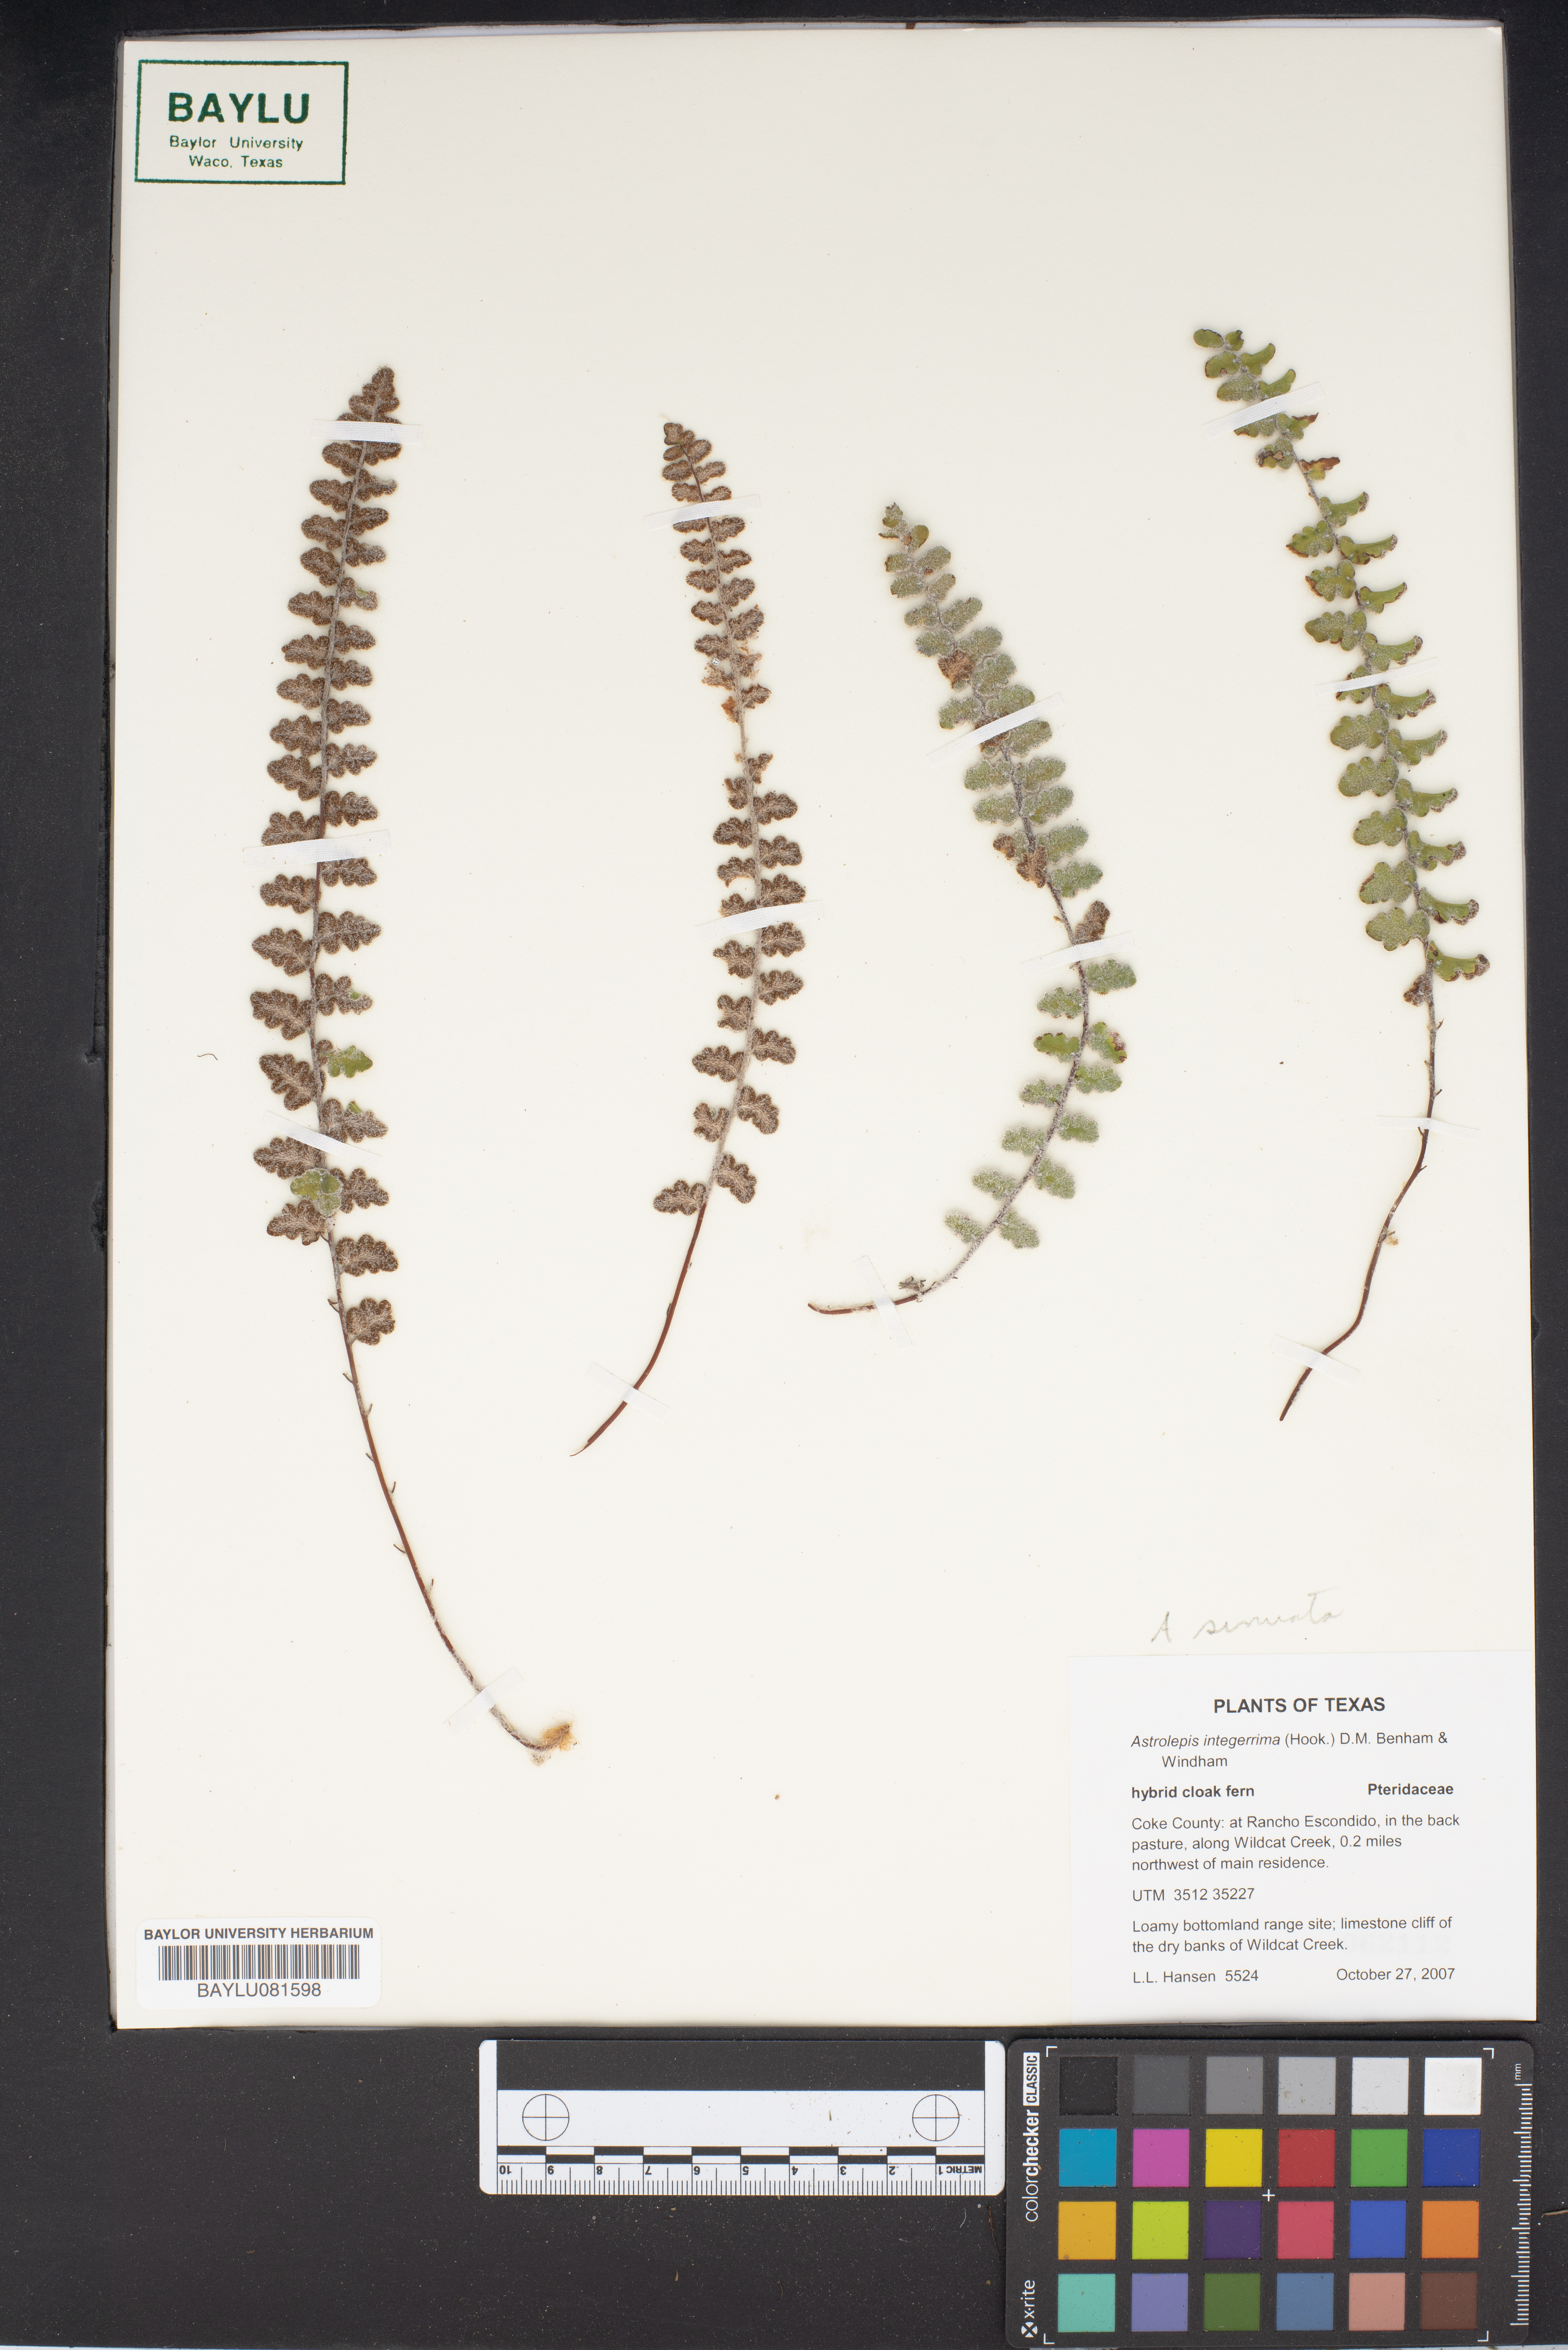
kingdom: Plantae
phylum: Tracheophyta
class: Polypodiopsida
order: Polypodiales
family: Pteridaceae
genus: Astrolepis
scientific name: Astrolepis integerrima
